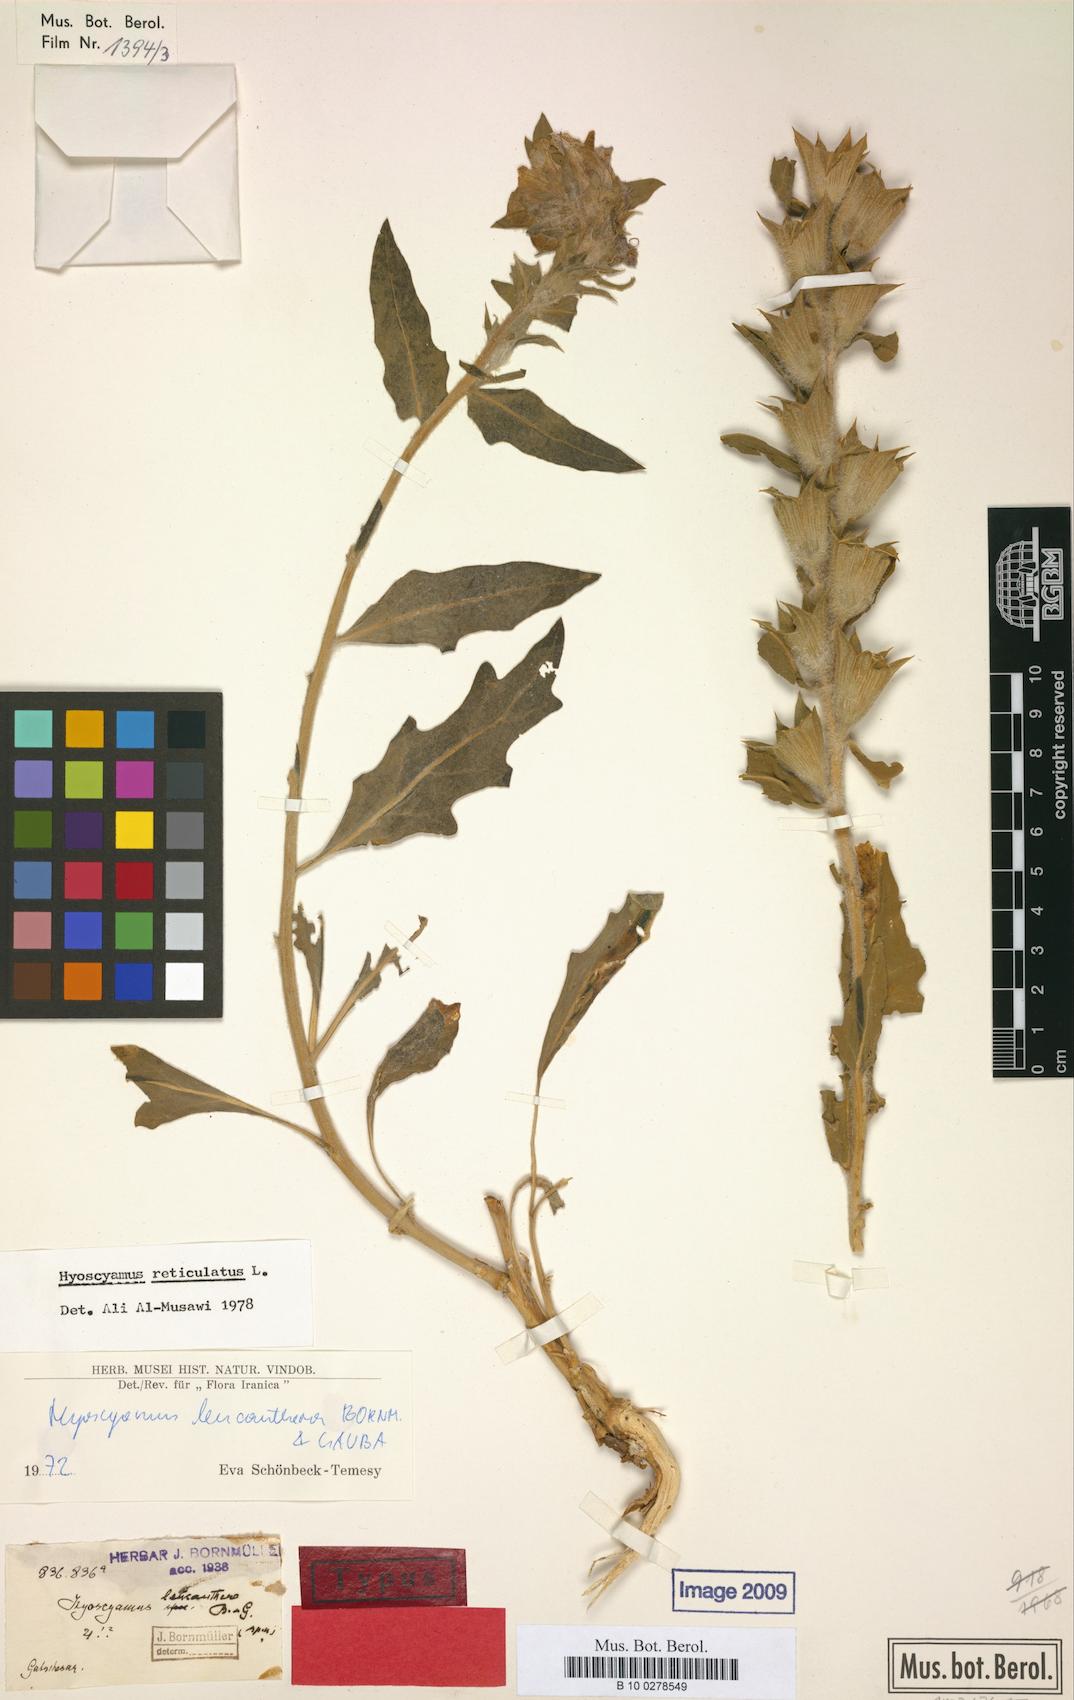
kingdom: Plantae
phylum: Tracheophyta
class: Magnoliopsida
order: Solanales
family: Solanaceae
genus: Hyoscyamus
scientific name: Hyoscyamus leucanthera
